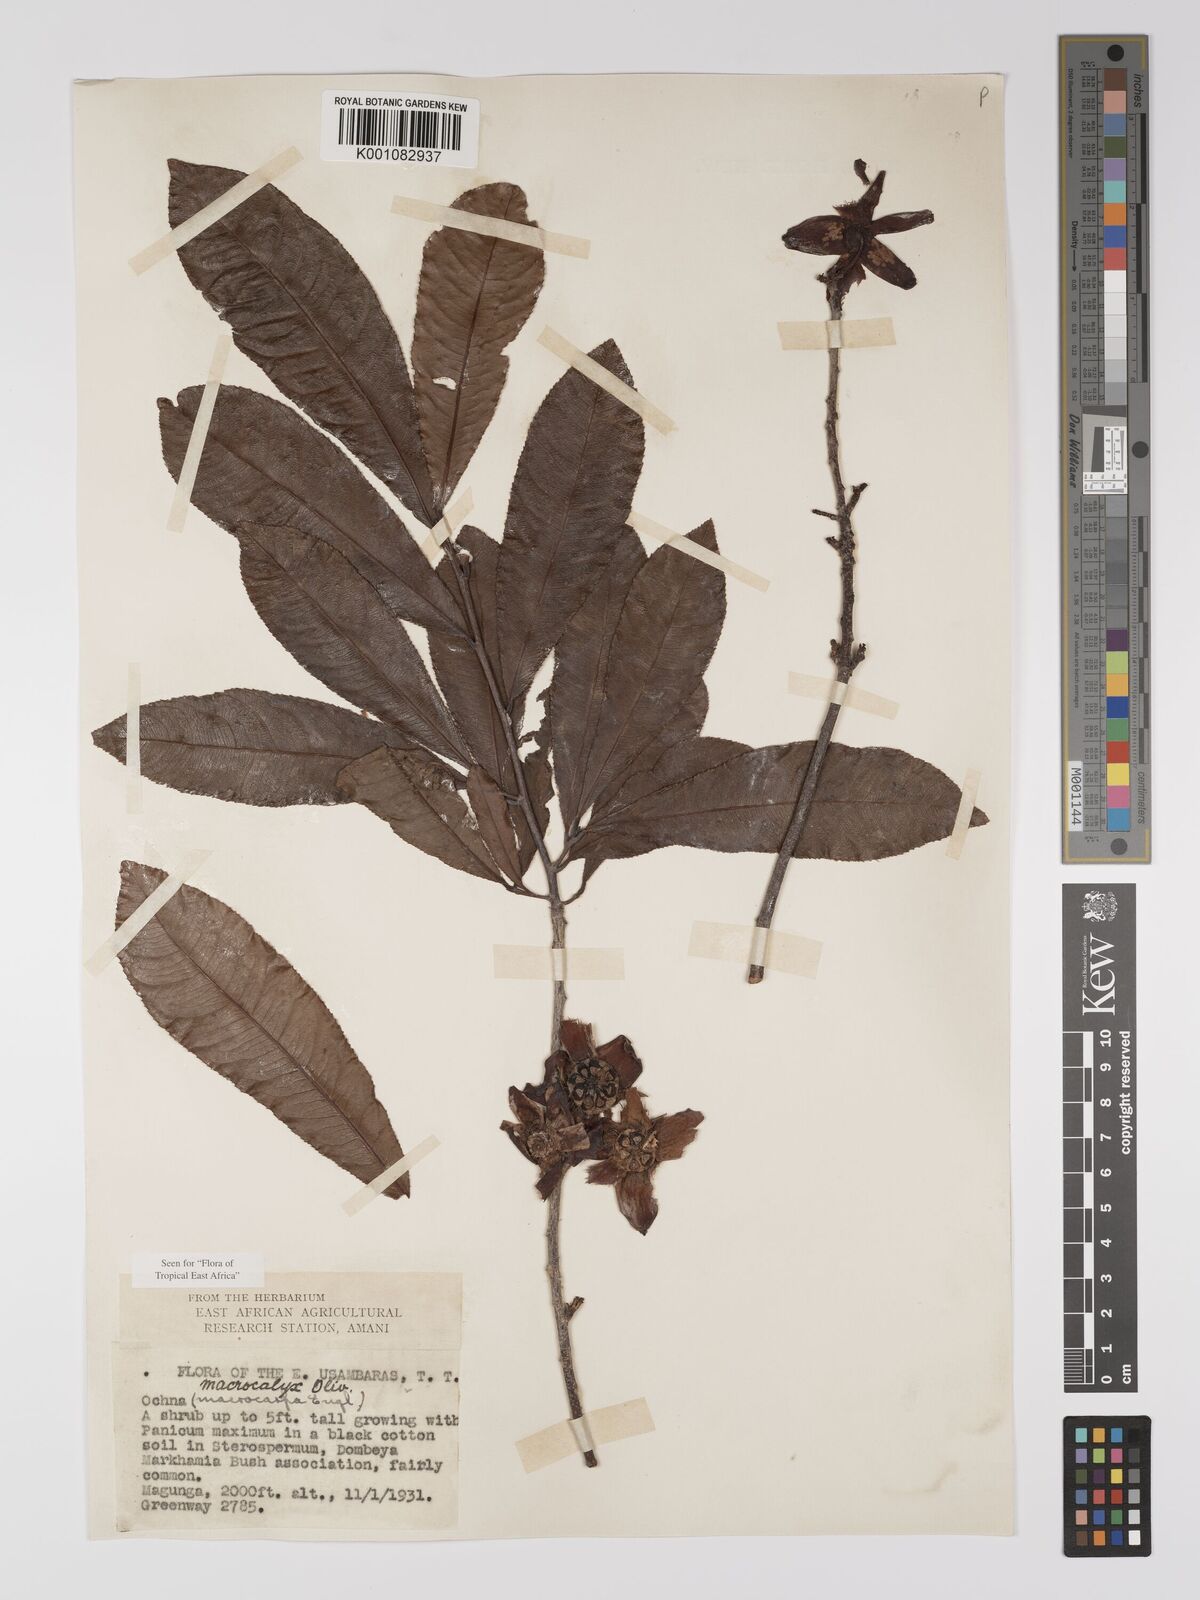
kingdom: Plantae
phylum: Tracheophyta
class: Magnoliopsida
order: Malpighiales
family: Ochnaceae
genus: Ochna
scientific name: Ochna macrocalyx
